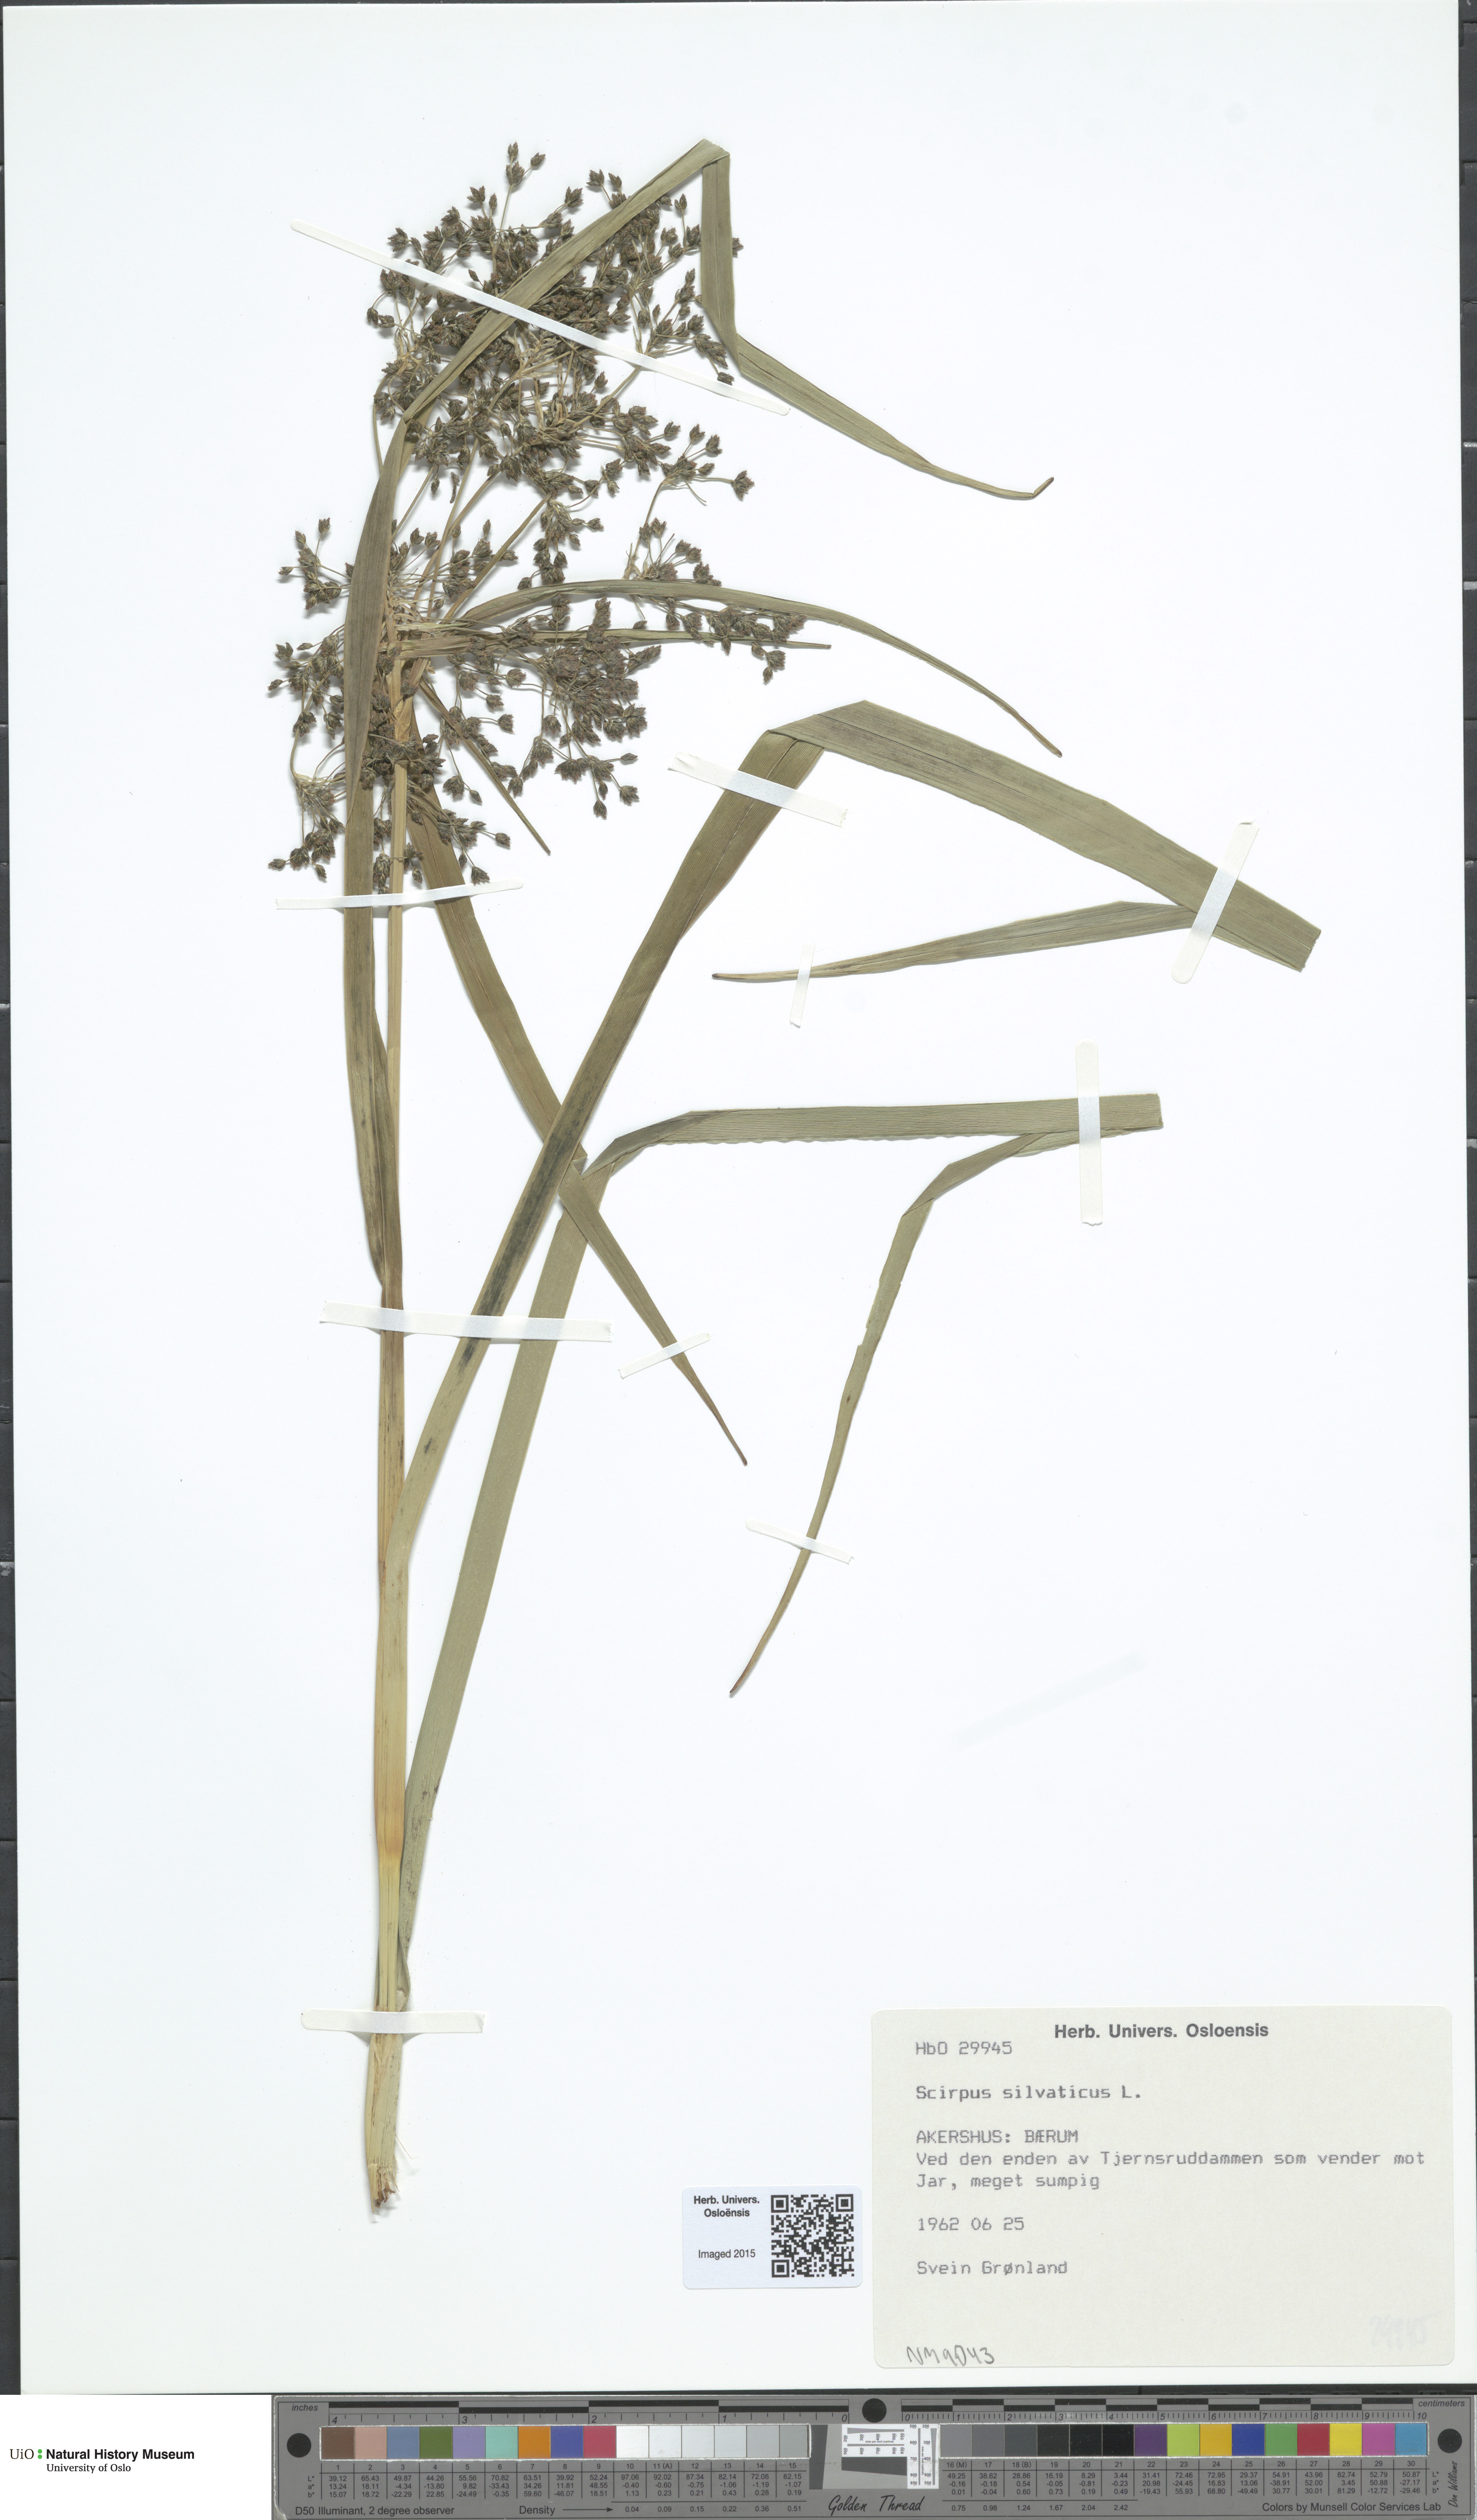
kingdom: Plantae
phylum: Tracheophyta
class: Liliopsida
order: Poales
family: Cyperaceae
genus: Scirpus
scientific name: Scirpus sylvaticus
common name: Wood club-rush
